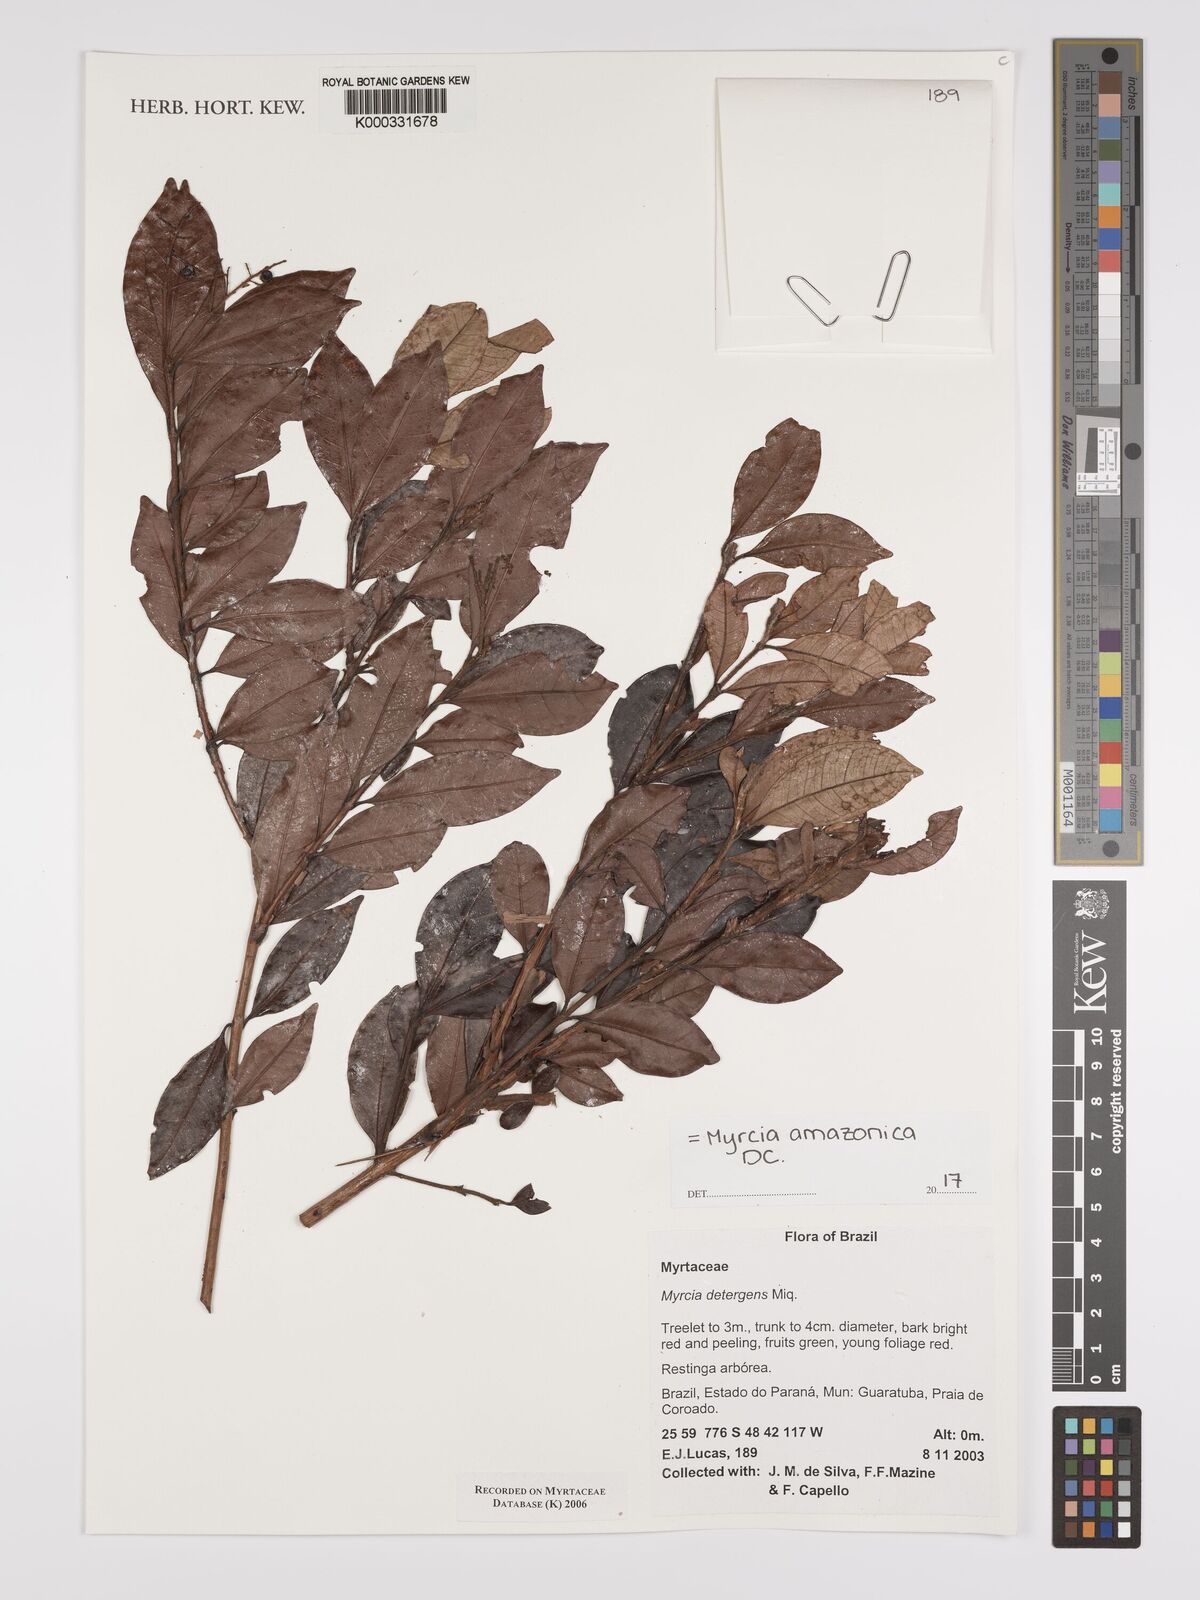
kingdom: Plantae
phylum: Tracheophyta
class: Magnoliopsida
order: Myrtales
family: Myrtaceae
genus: Myrcia
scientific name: Myrcia amazonica
